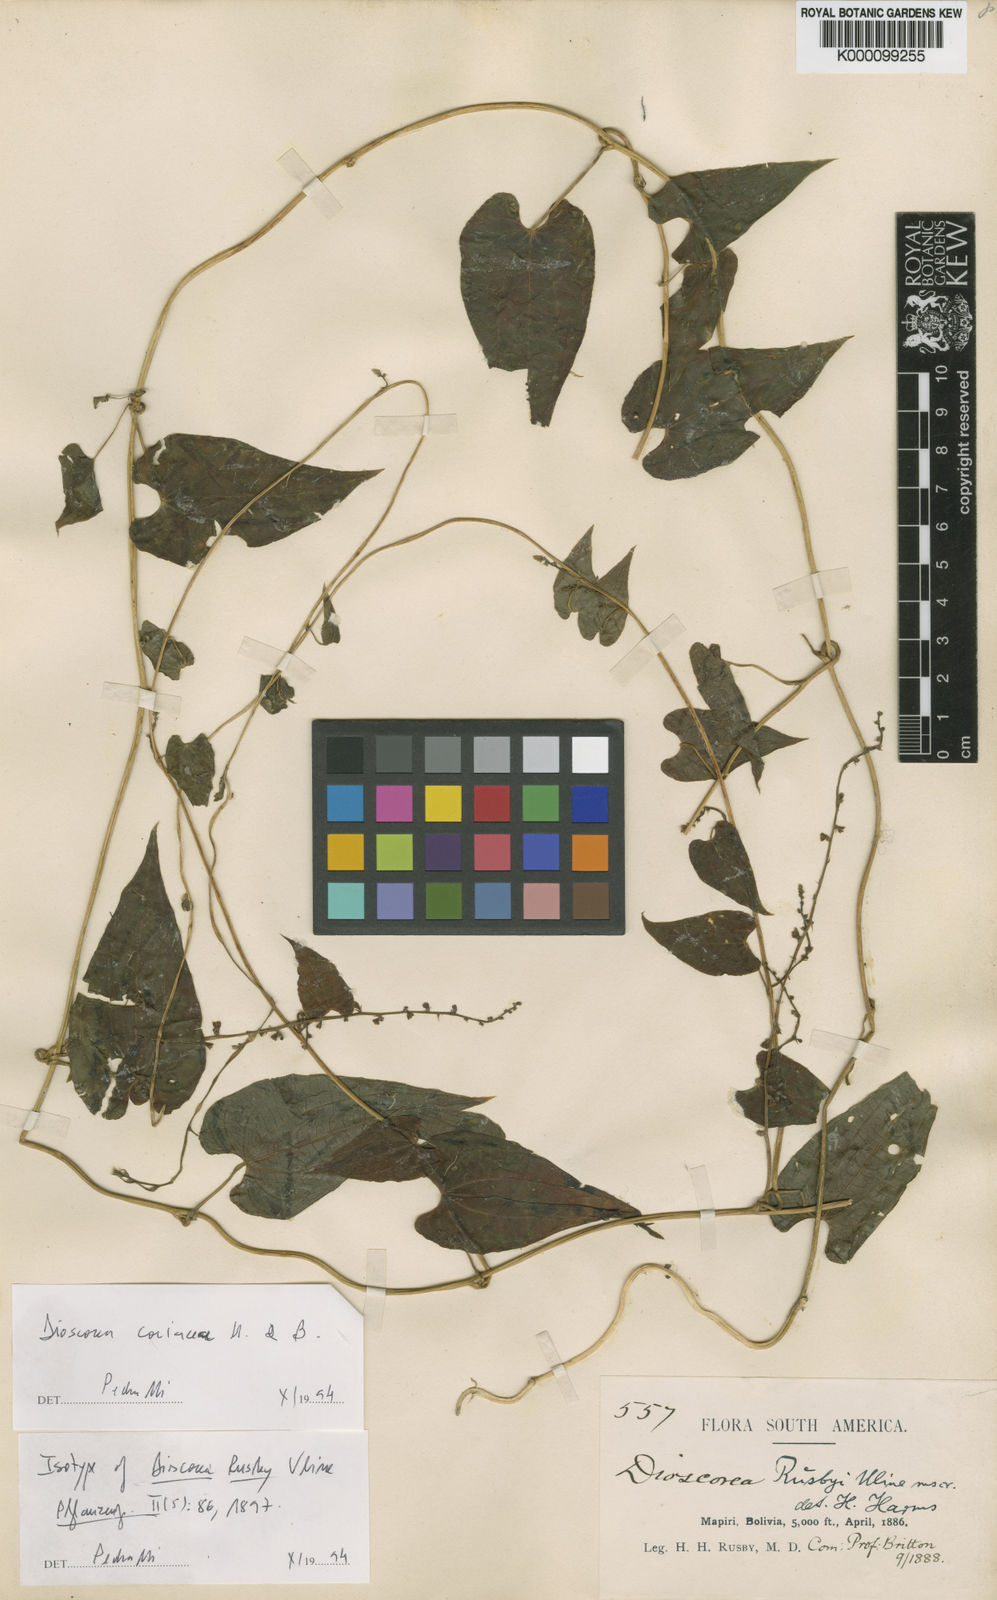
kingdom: Plantae
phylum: Tracheophyta
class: Liliopsida
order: Dioscoreales
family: Dioscoreaceae
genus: Dioscorea
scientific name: Dioscorea rusbyi
